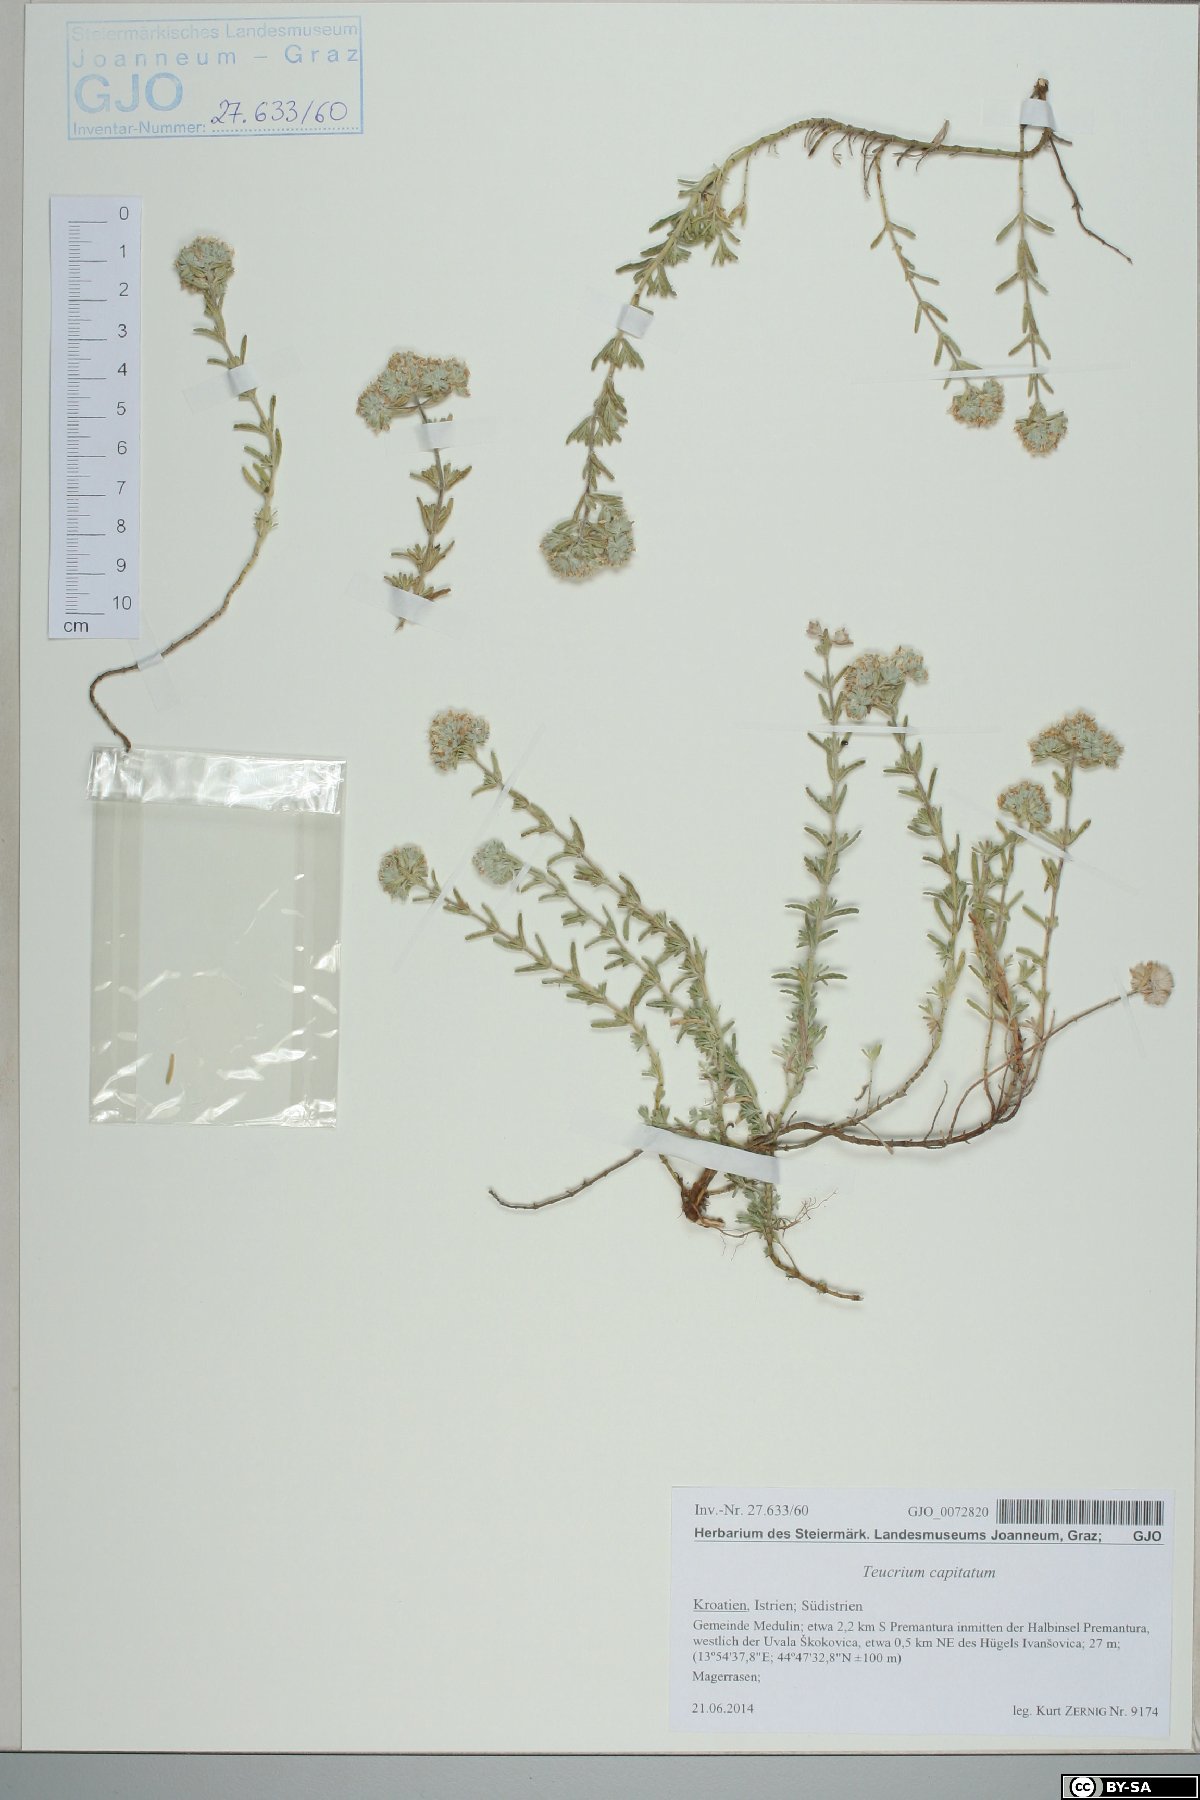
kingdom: Plantae
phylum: Tracheophyta
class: Magnoliopsida
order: Lamiales
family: Lamiaceae
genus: Teucrium
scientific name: Teucrium capitatum
